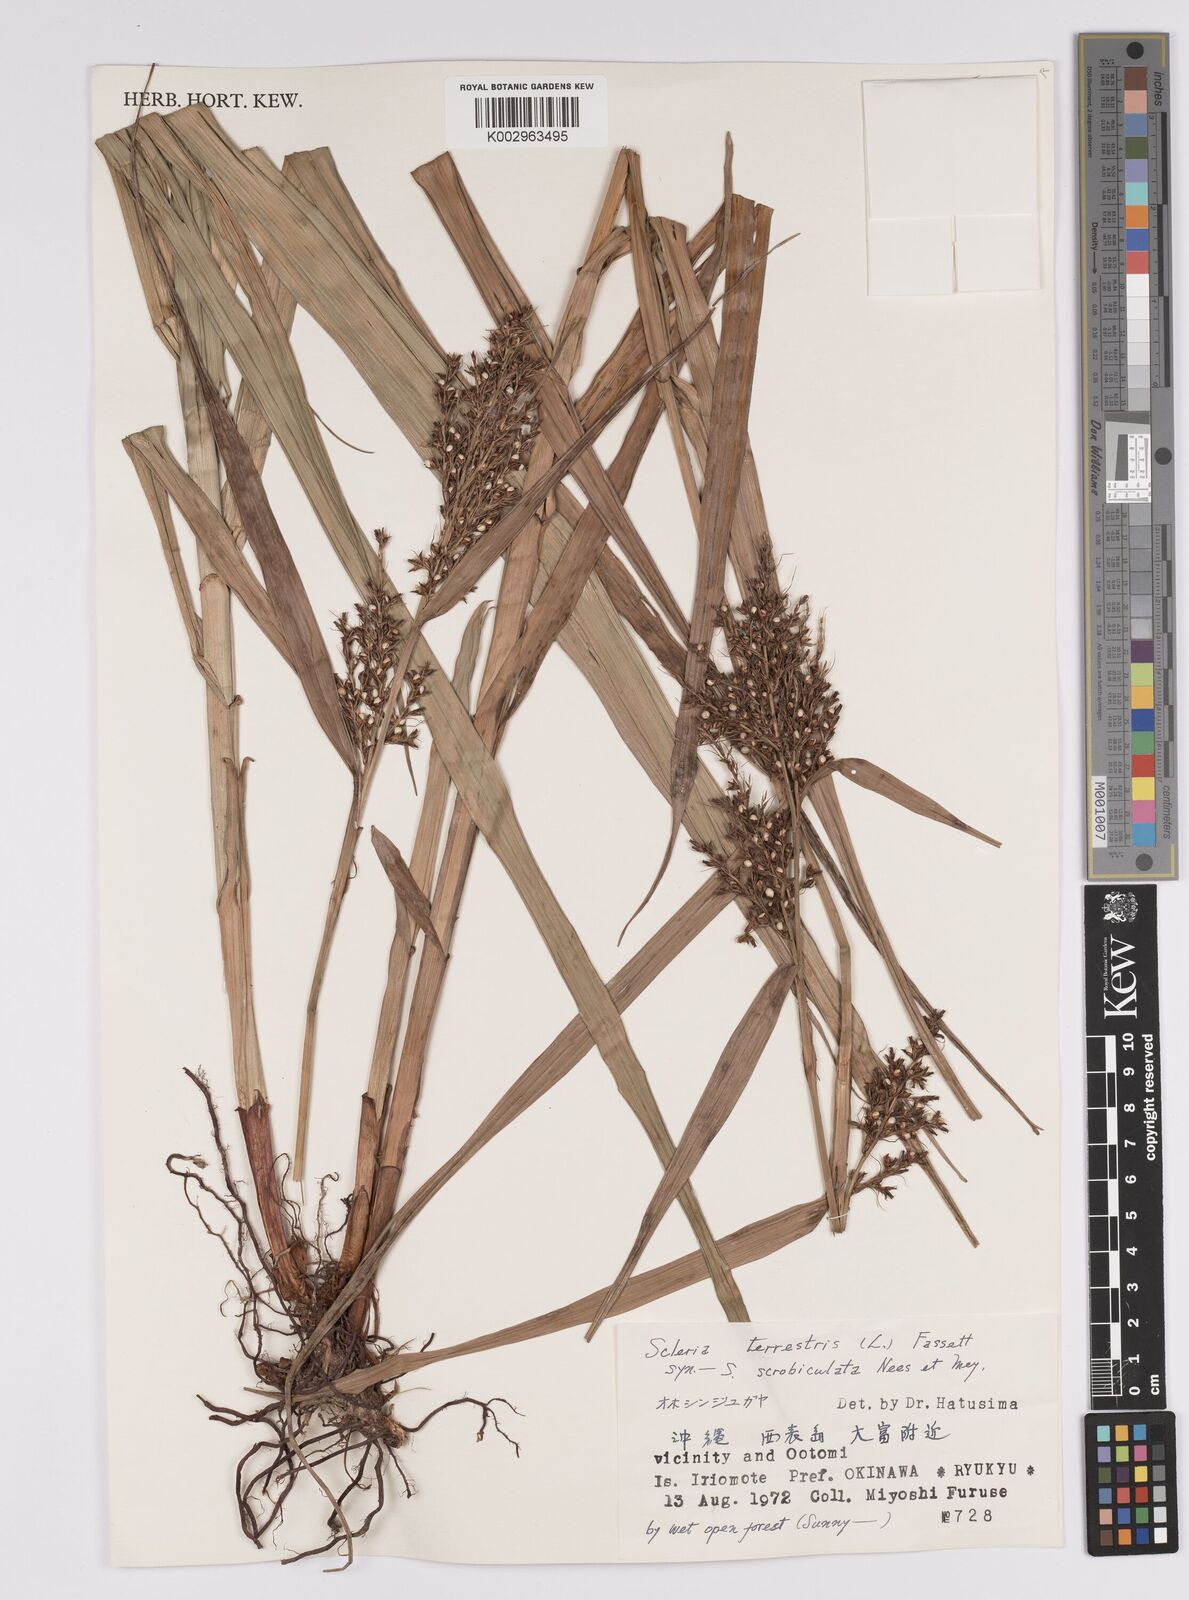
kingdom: Plantae
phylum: Tracheophyta
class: Liliopsida
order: Poales
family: Cyperaceae
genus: Scleria
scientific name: Scleria terrestris
